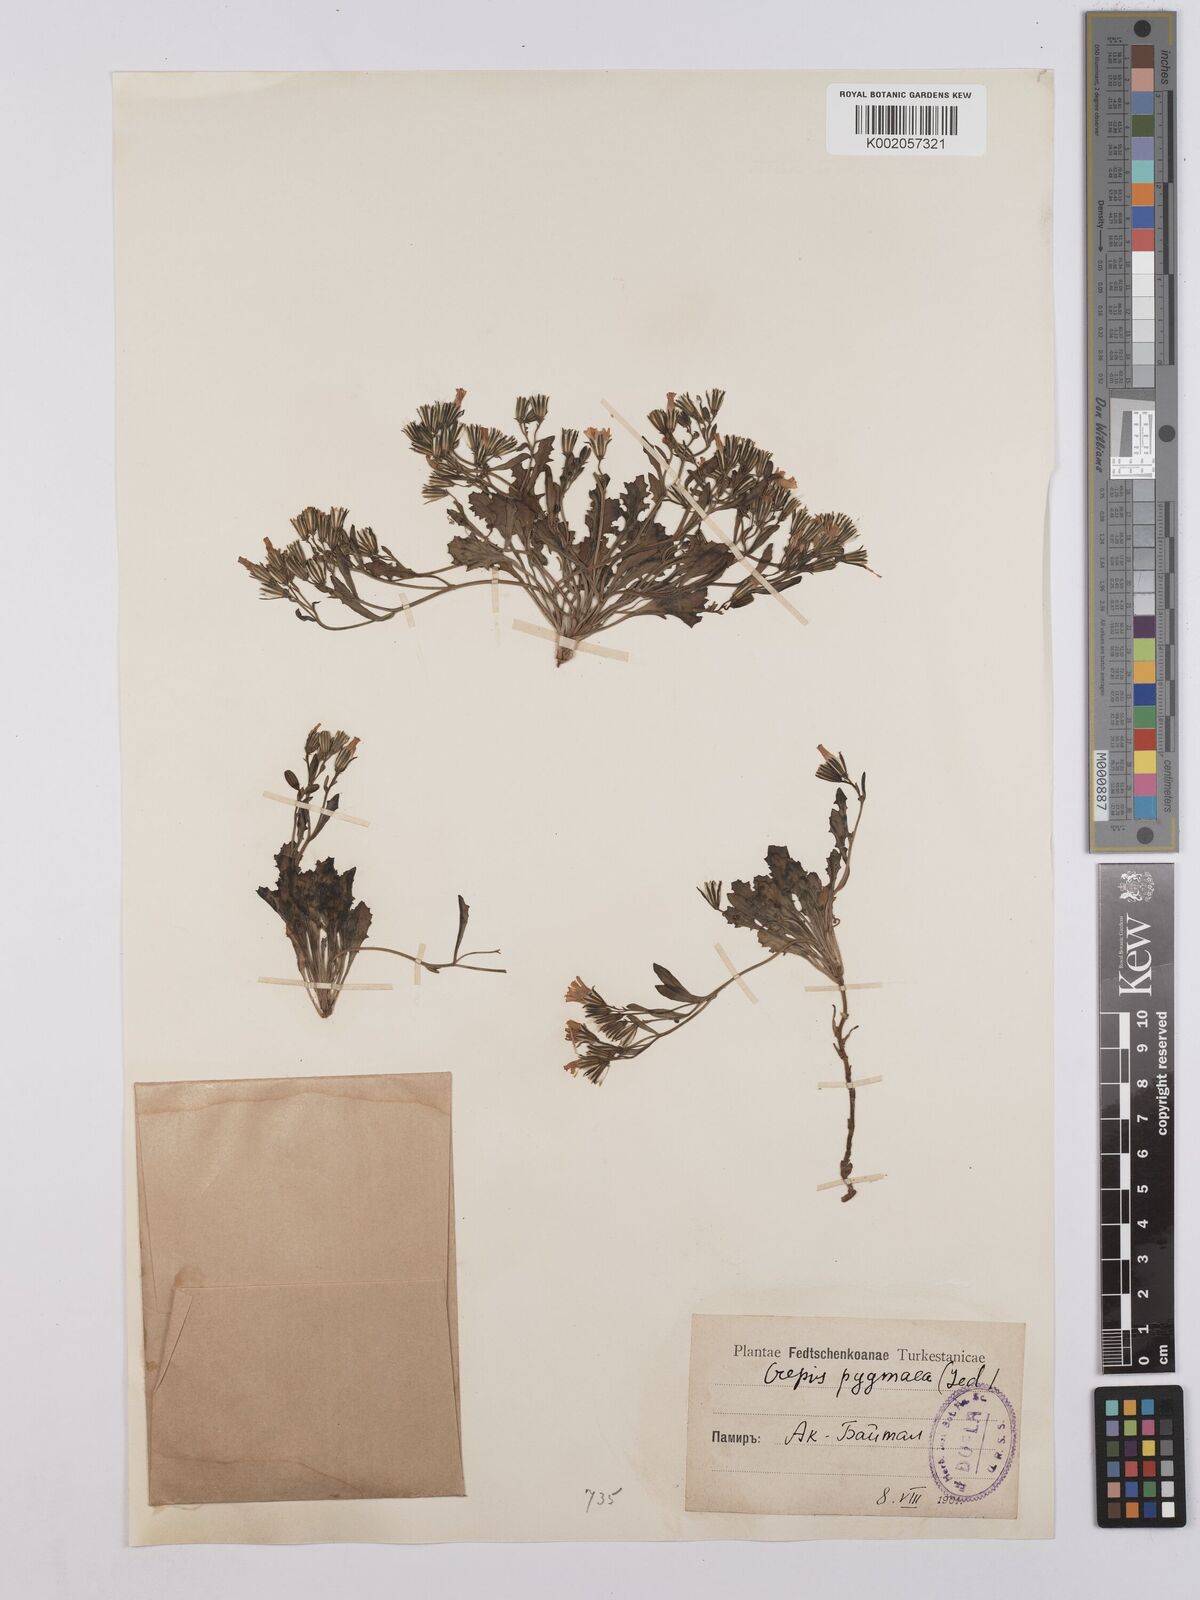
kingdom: Plantae
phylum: Tracheophyta
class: Magnoliopsida
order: Asterales
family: Asteraceae
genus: Askellia
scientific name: Askellia pygmaea
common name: Dwarf alpine hawksbeard
